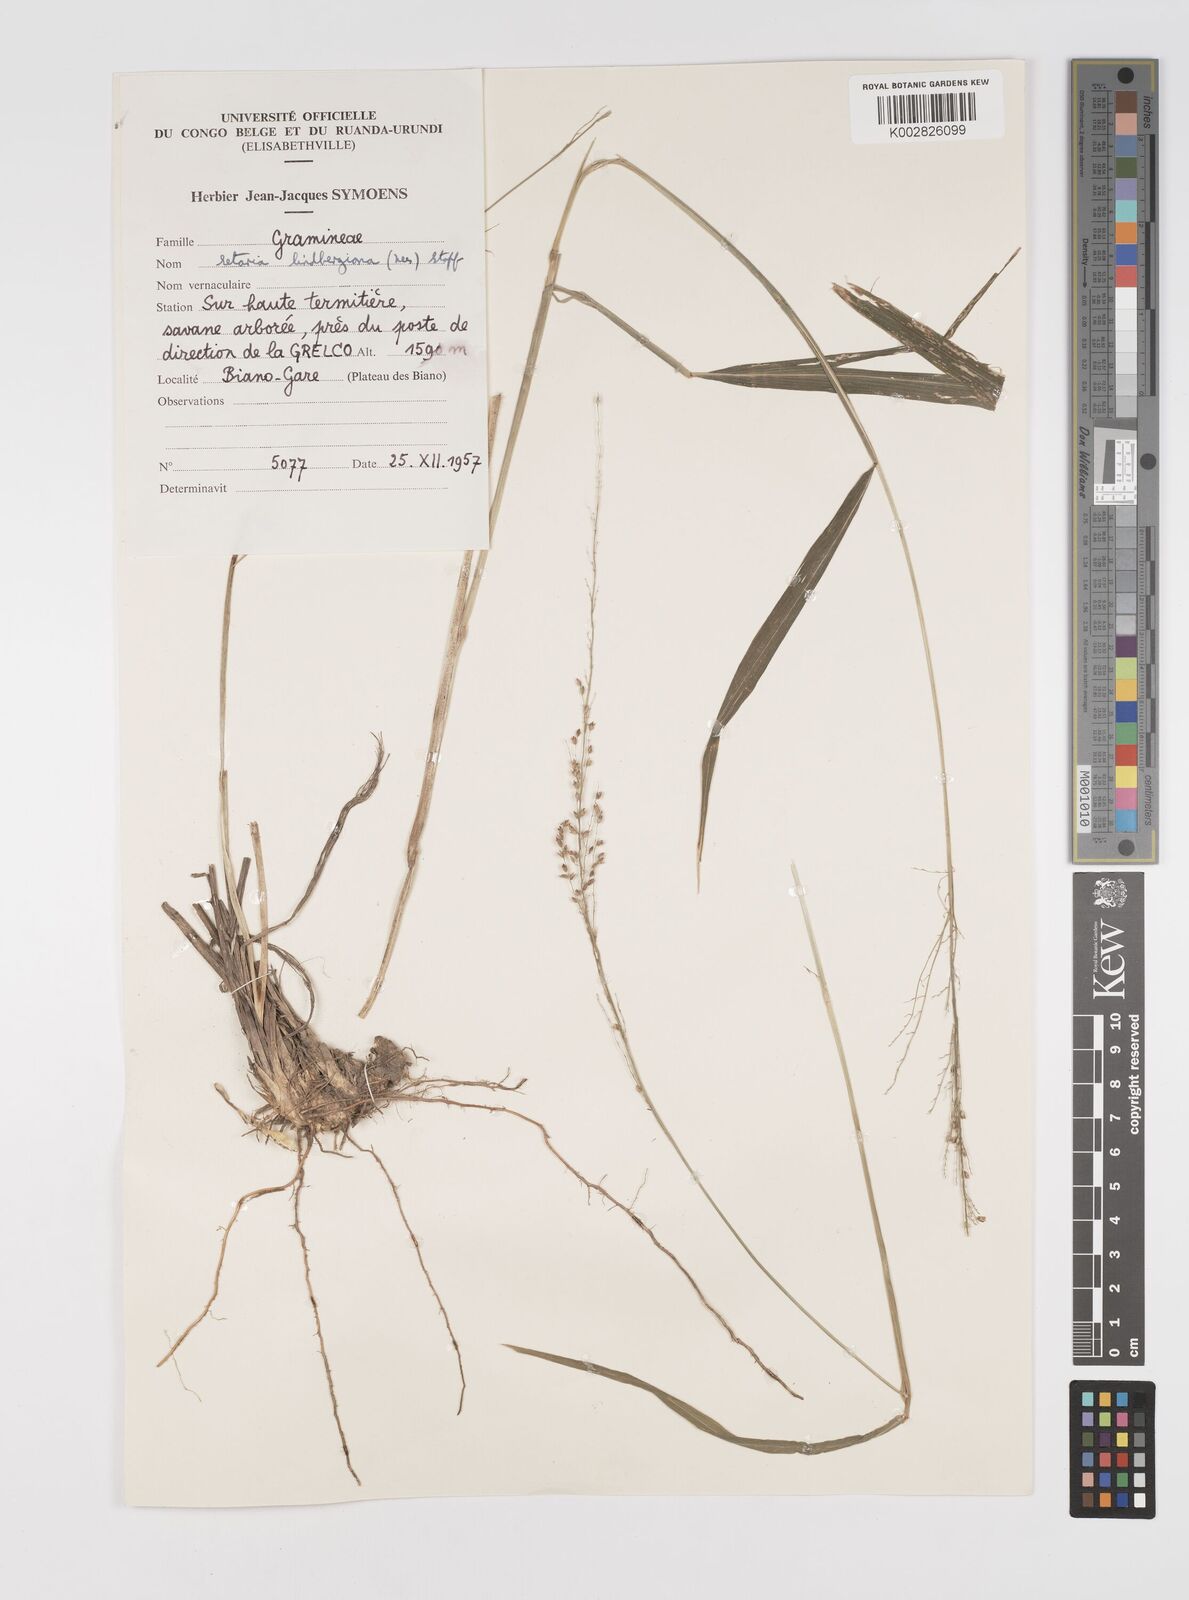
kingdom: Plantae
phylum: Tracheophyta
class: Liliopsida
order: Poales
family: Poaceae
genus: Setaria
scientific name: Setaria lindenbergiana
